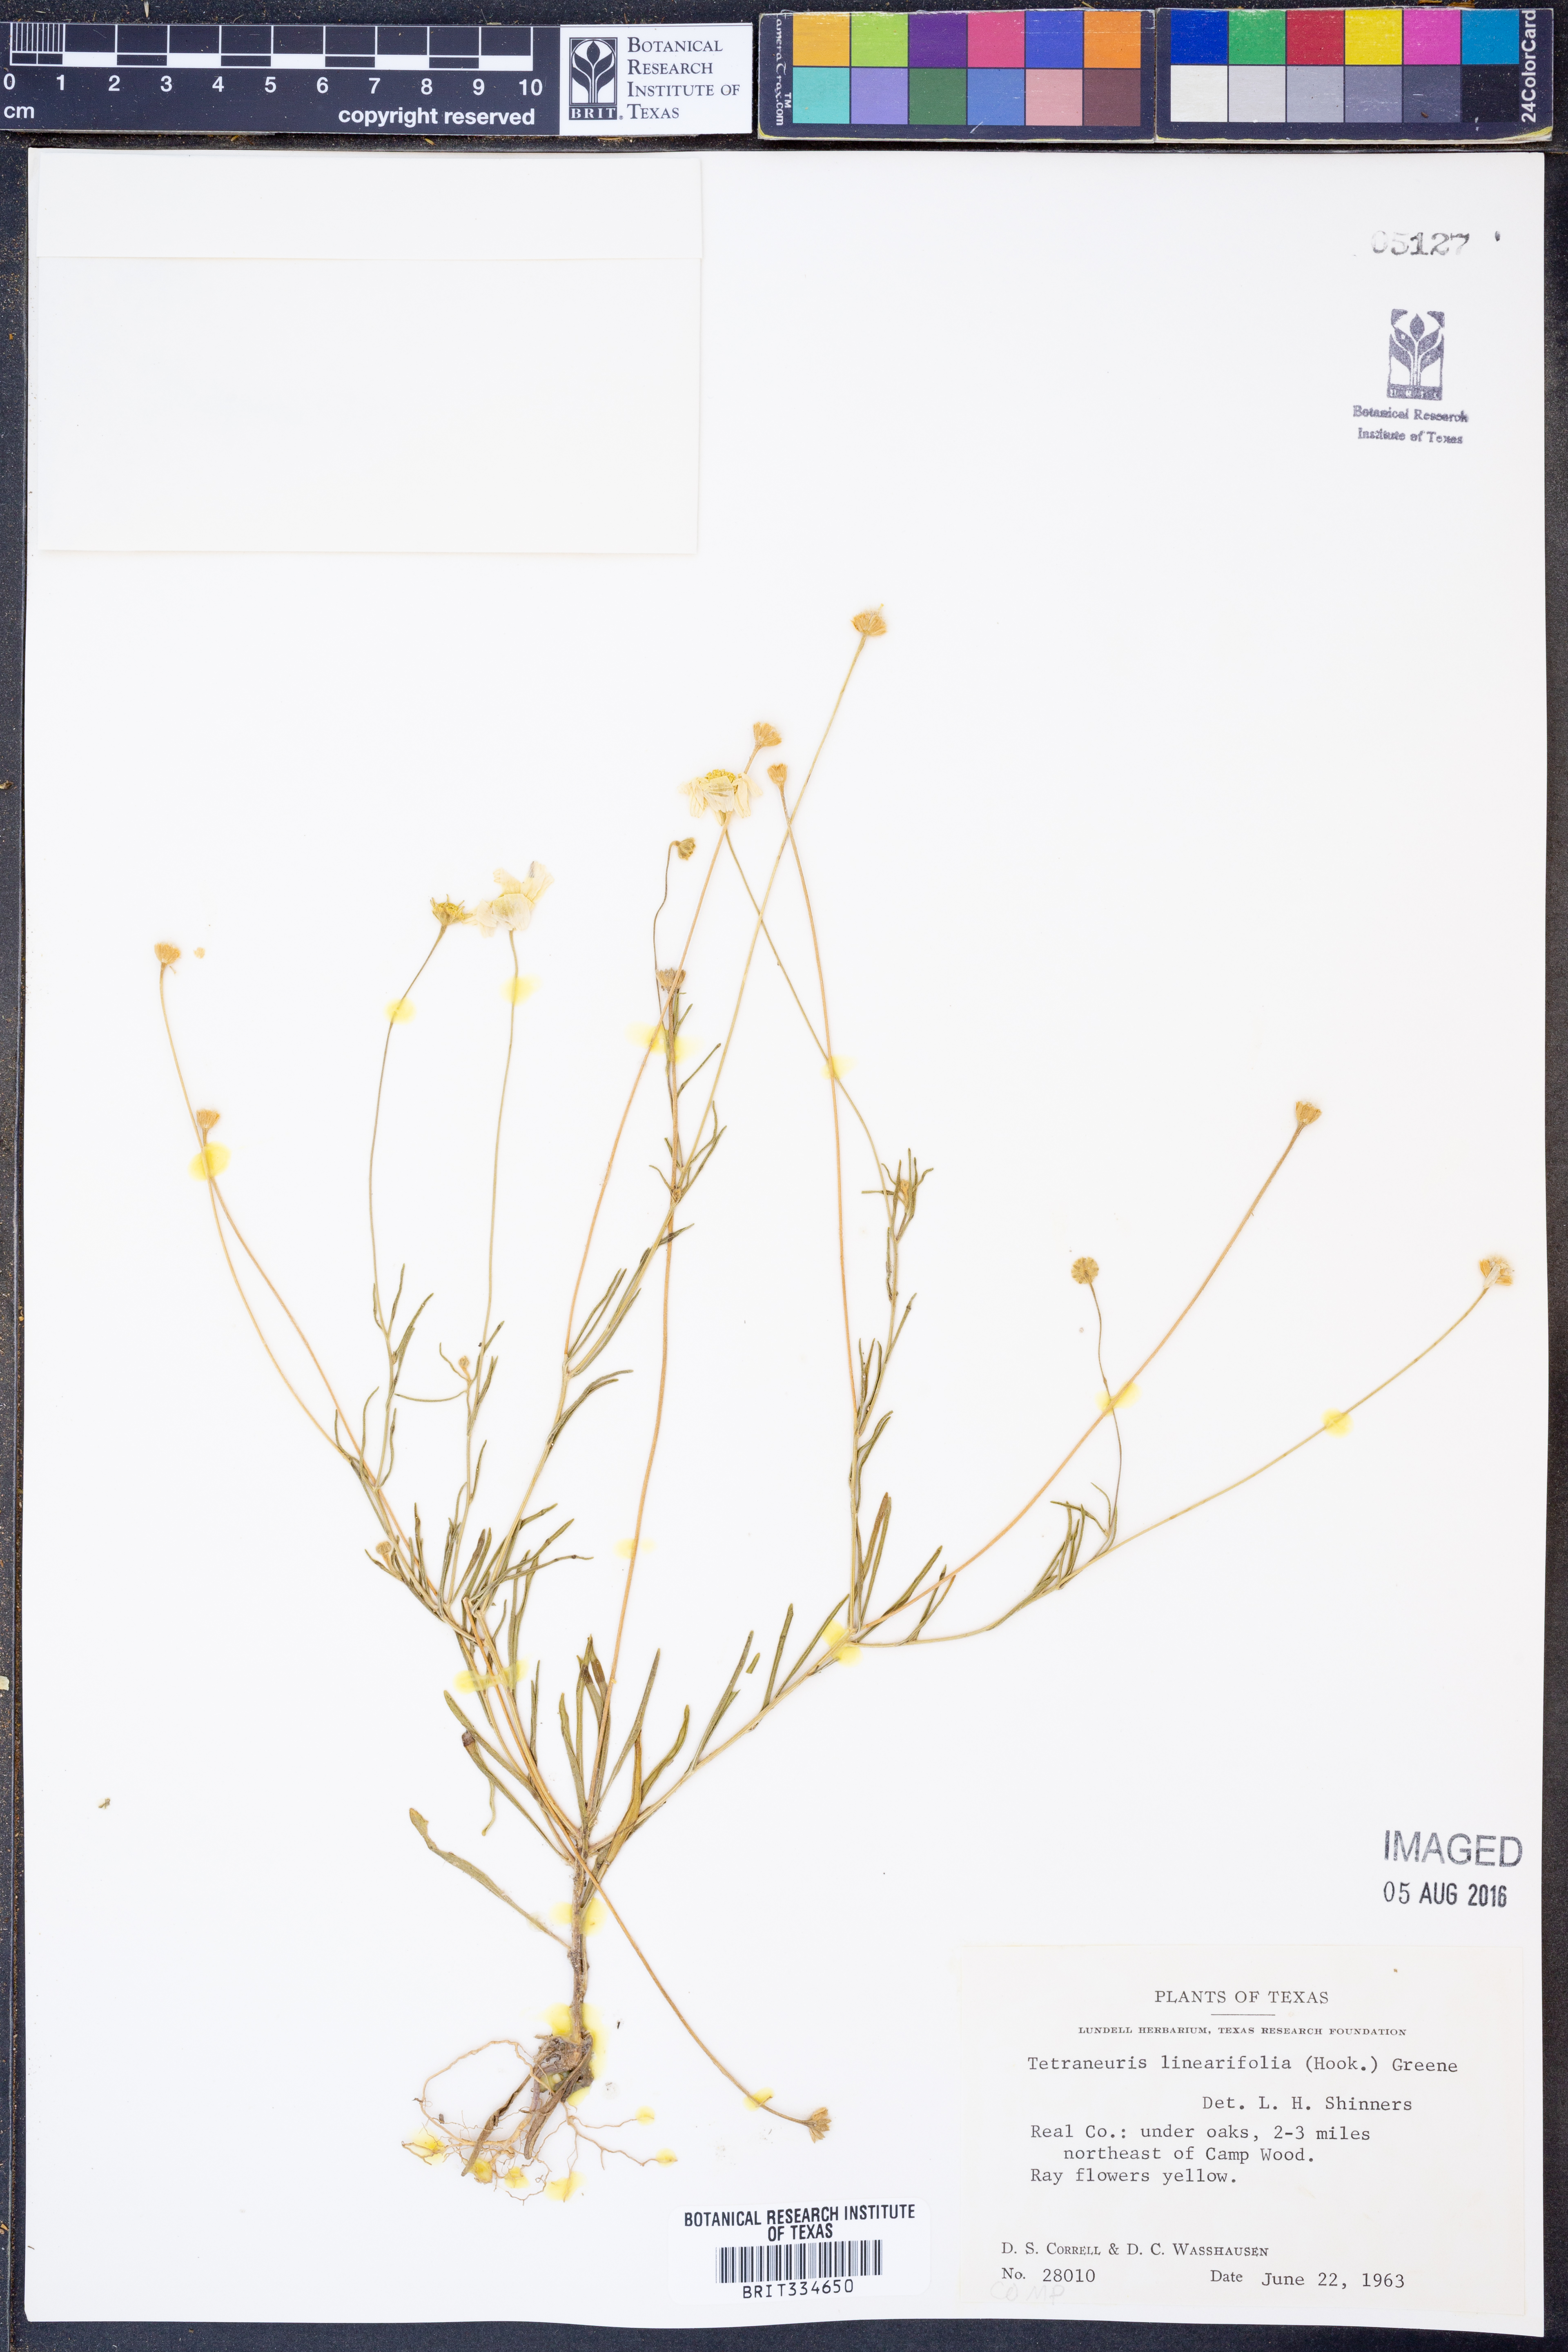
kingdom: Plantae
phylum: Tracheophyta
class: Magnoliopsida
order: Asterales
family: Asteraceae
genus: Tetraneuris
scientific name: Tetraneuris linearifolia
